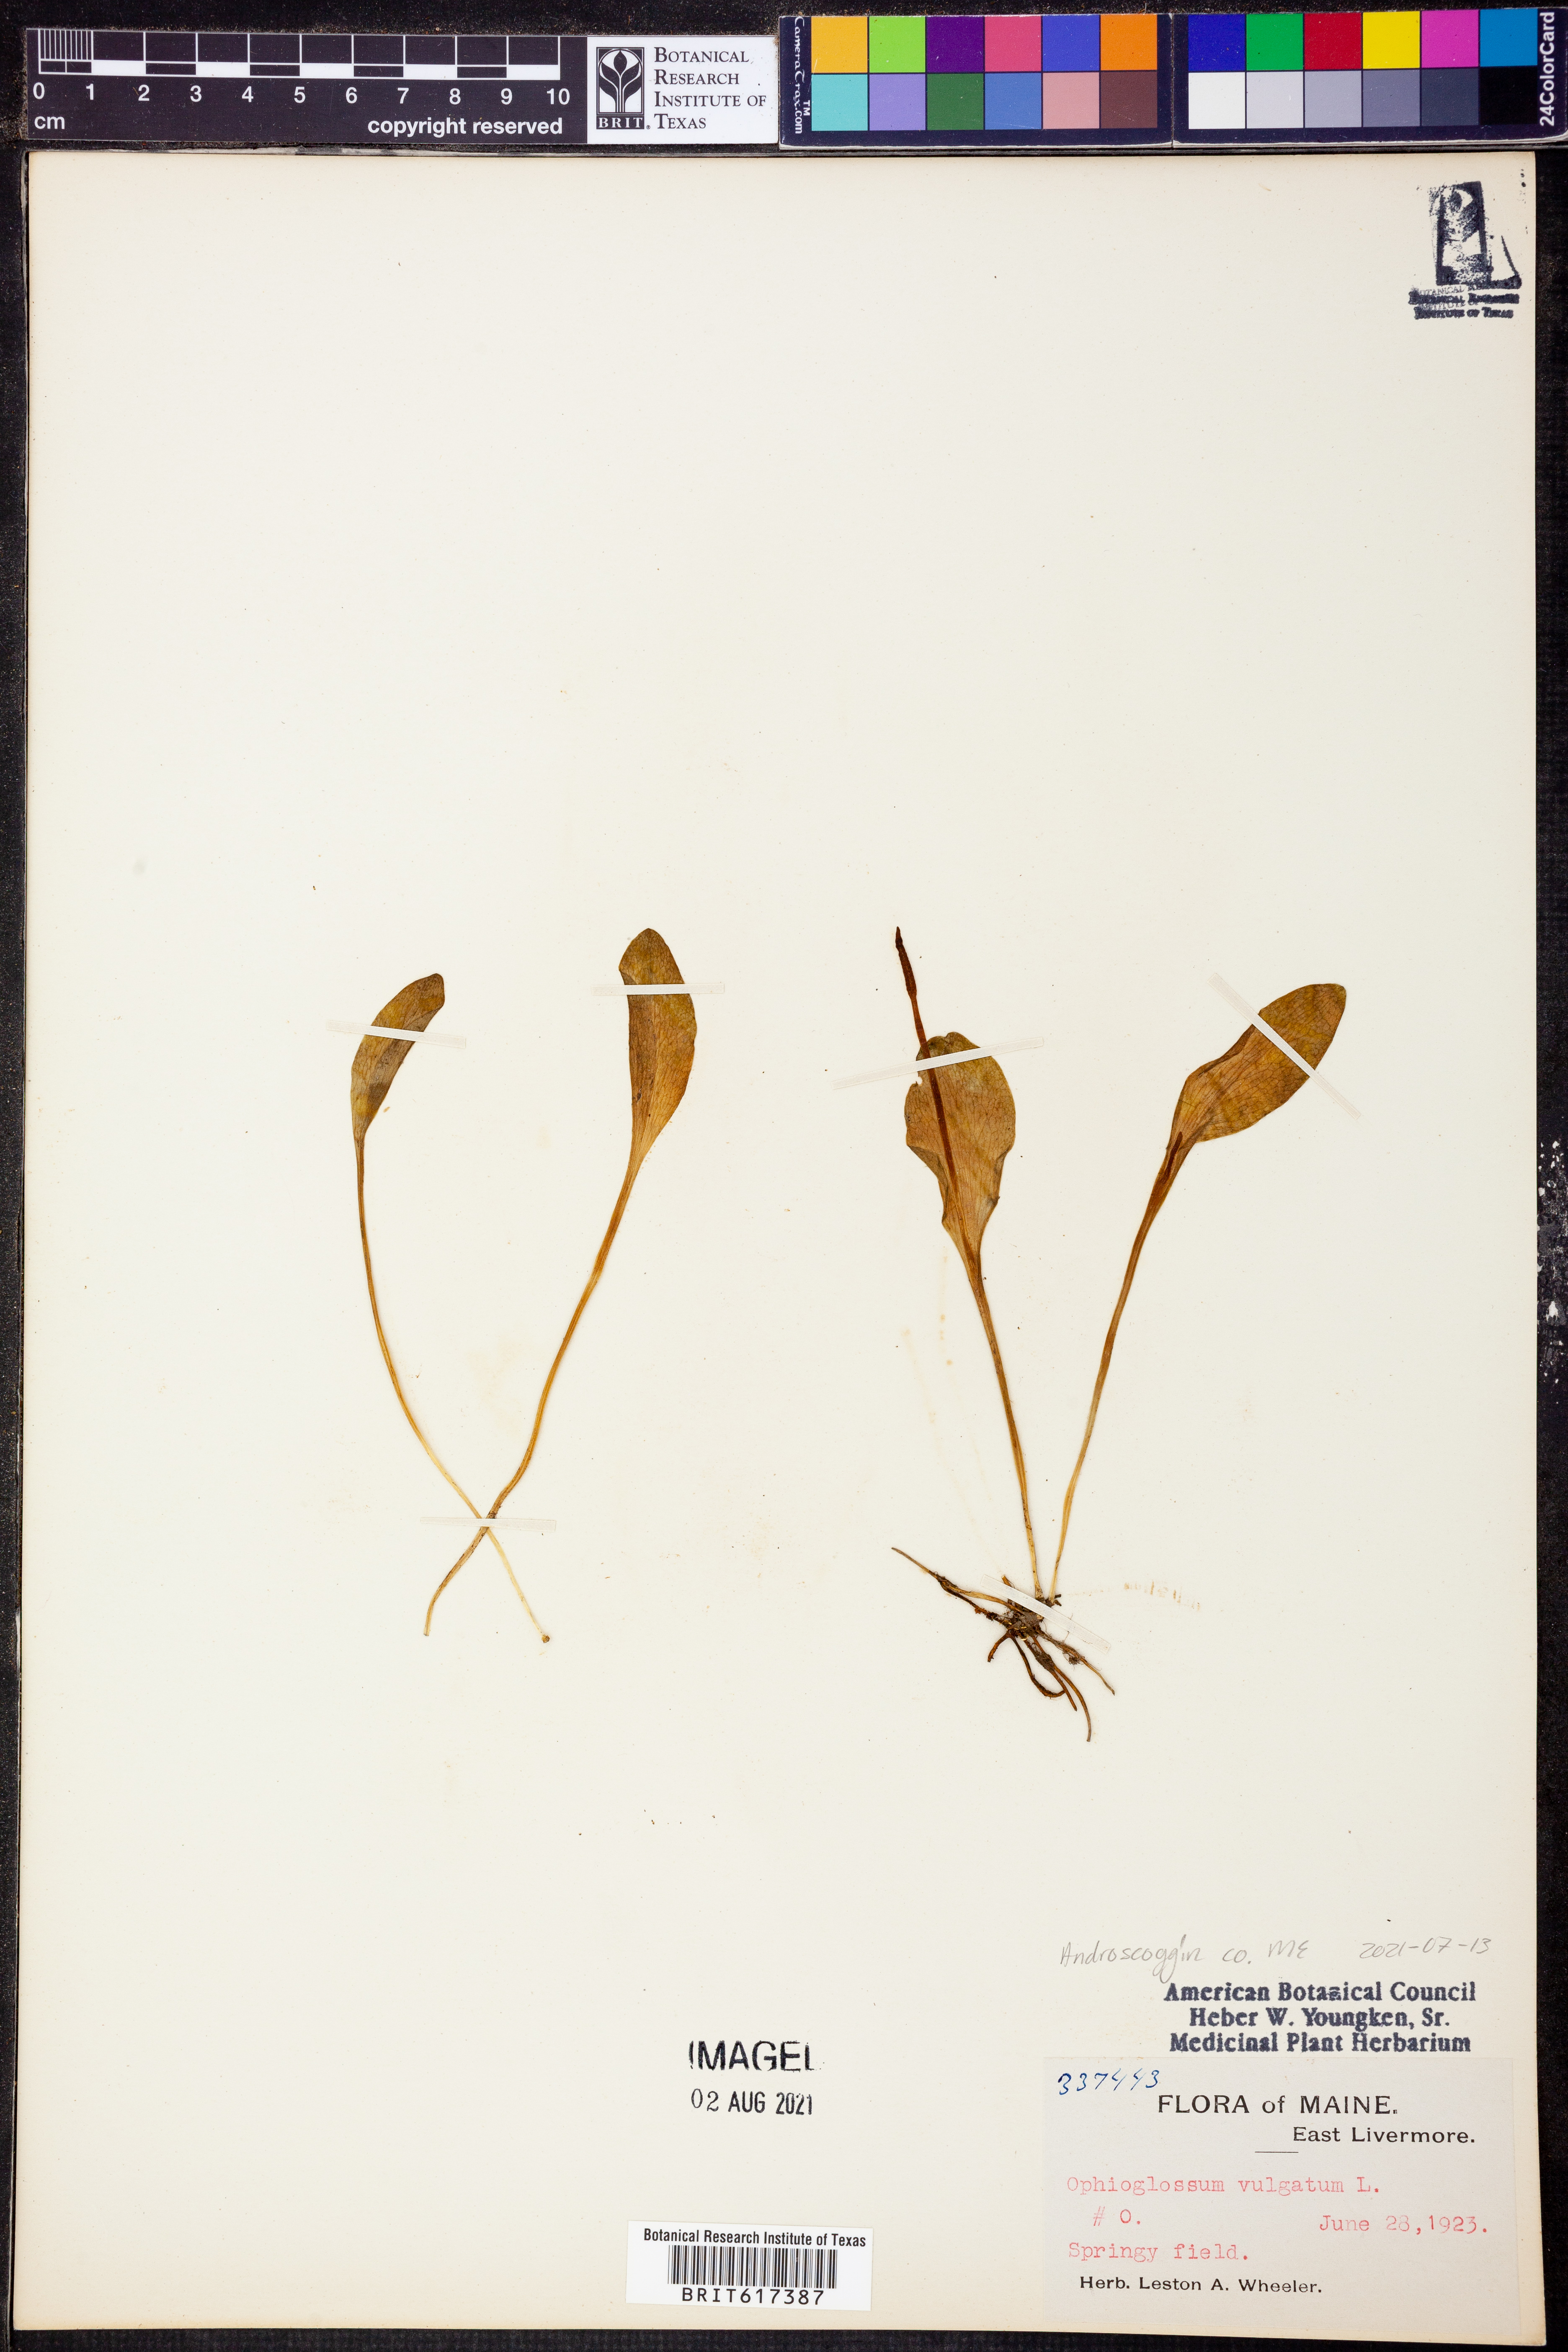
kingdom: Plantae
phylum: Tracheophyta
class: Polypodiopsida
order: Ophioglossales
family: Ophioglossaceae
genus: Ophioglossum
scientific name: Ophioglossum vulgatum
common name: Adder's-tongue
